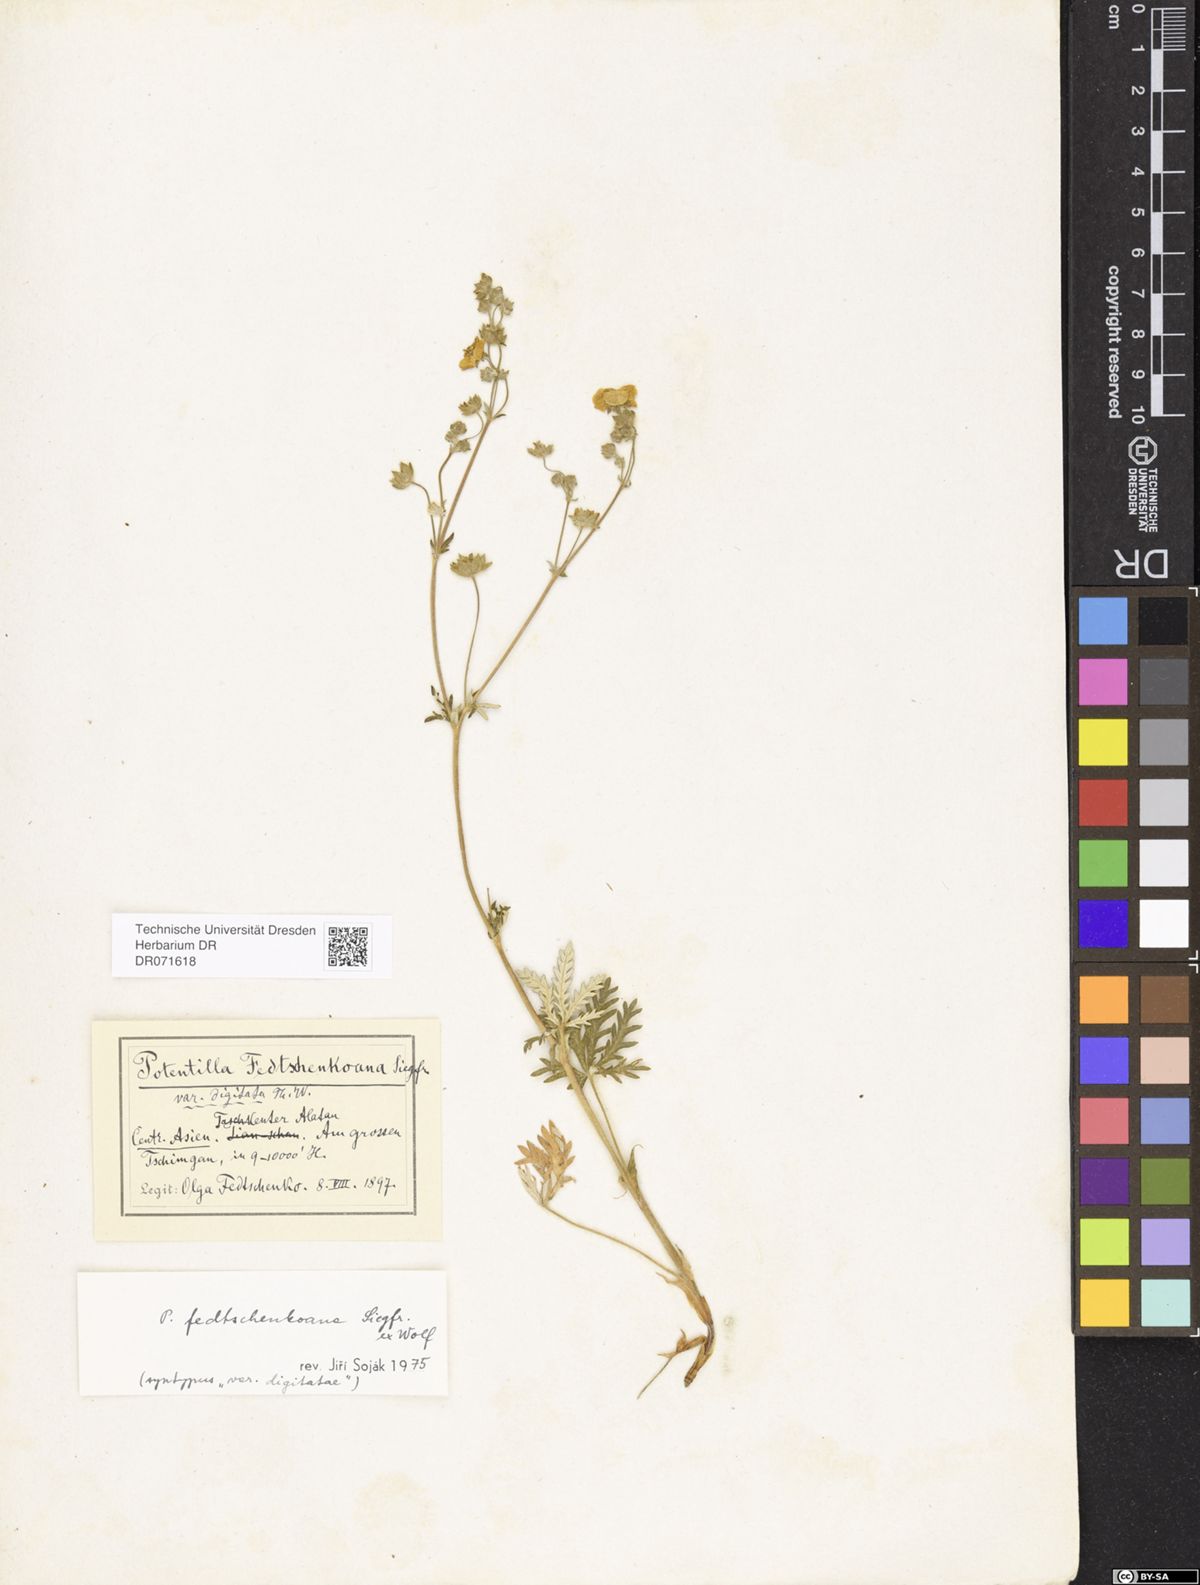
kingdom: Plantae
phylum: Tracheophyta
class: Magnoliopsida
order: Rosales
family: Rosaceae
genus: Potentilla
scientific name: Potentilla fedtschenkoana
